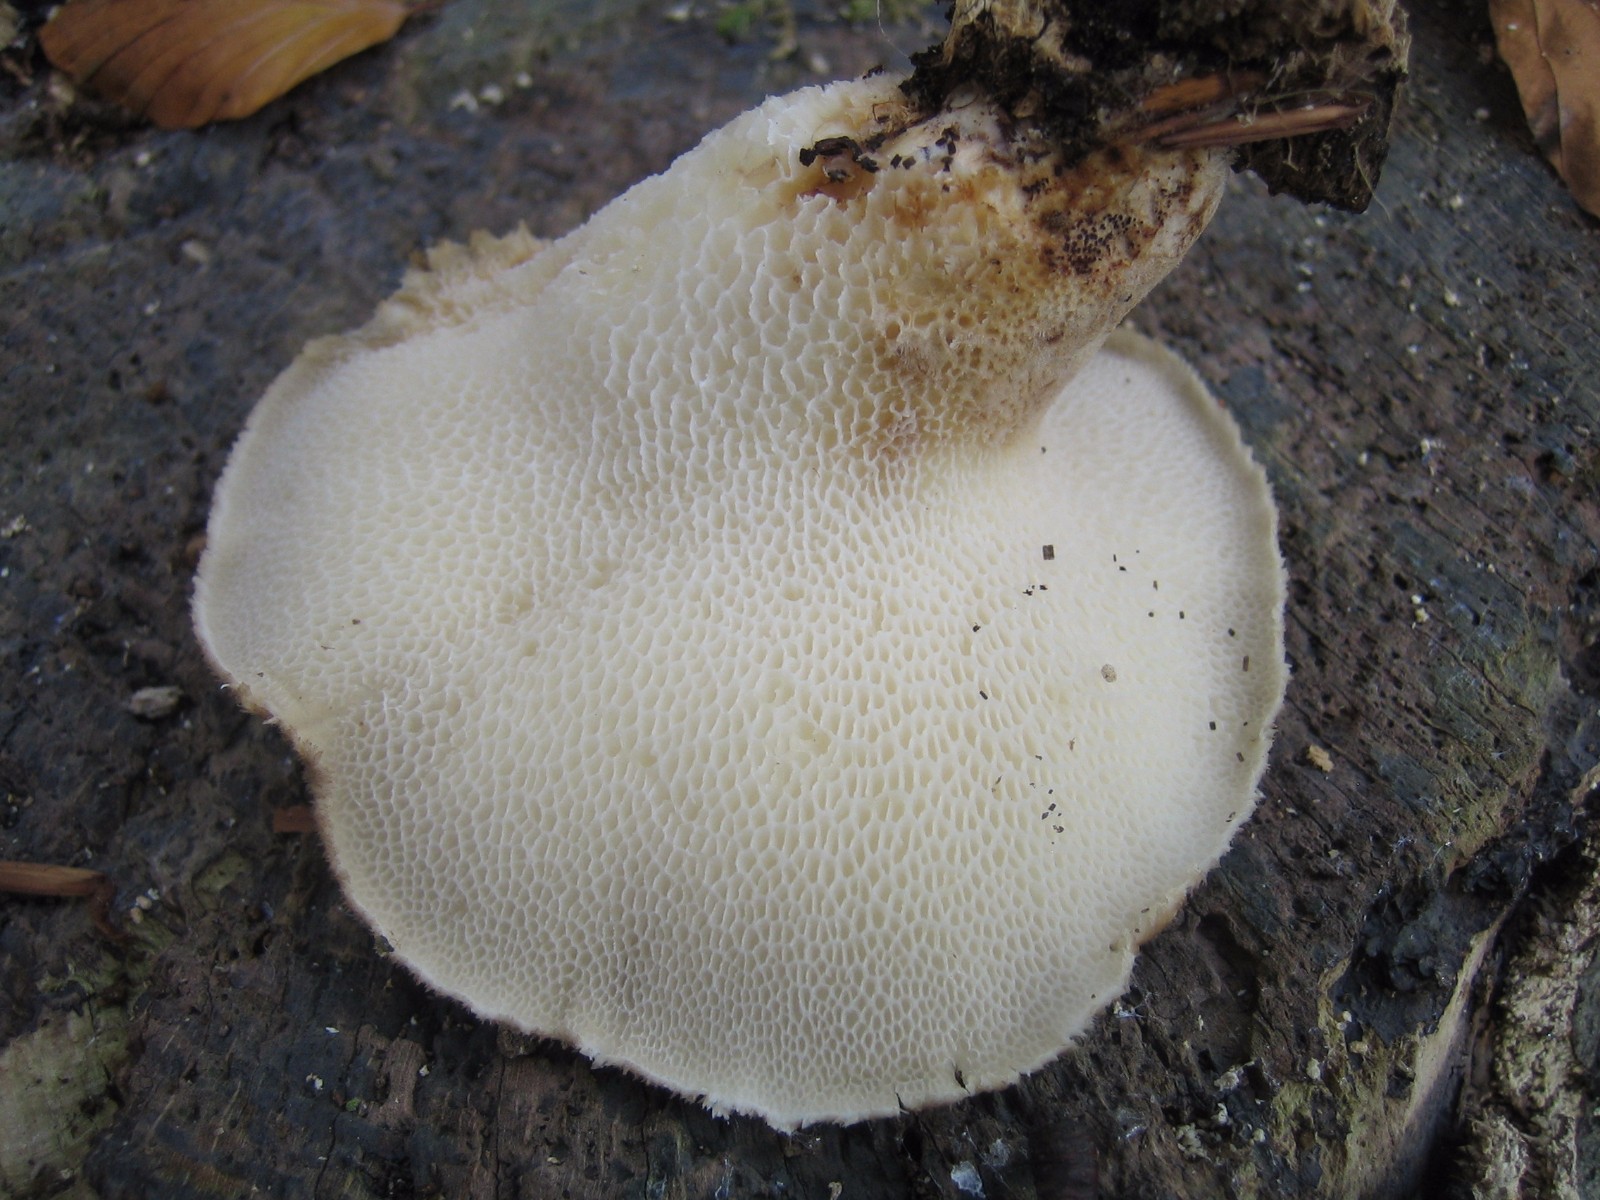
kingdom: Fungi
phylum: Basidiomycota
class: Agaricomycetes
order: Polyporales
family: Polyporaceae
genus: Polyporus
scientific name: Polyporus tuberaster
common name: knoldet stilkporesvamp
